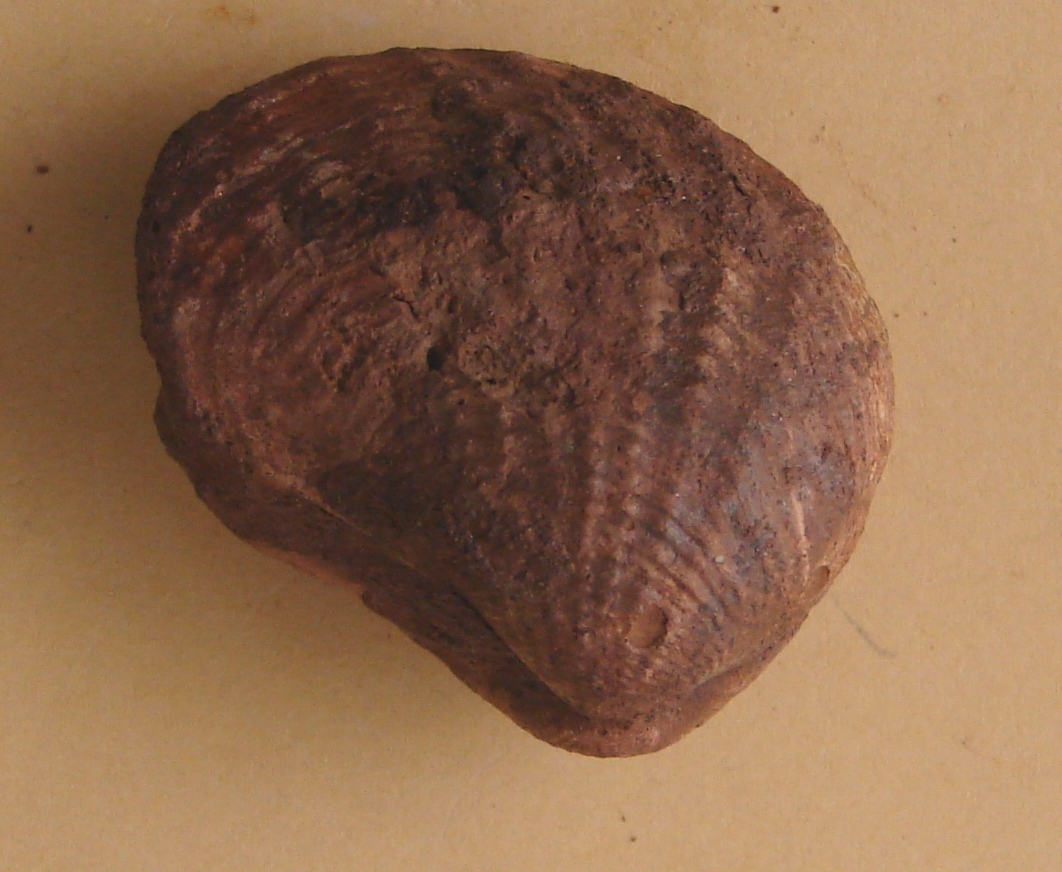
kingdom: Animalia
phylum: Mollusca
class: Bivalvia
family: Pholadomyidae
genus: Pholadomya
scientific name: Pholadomya
